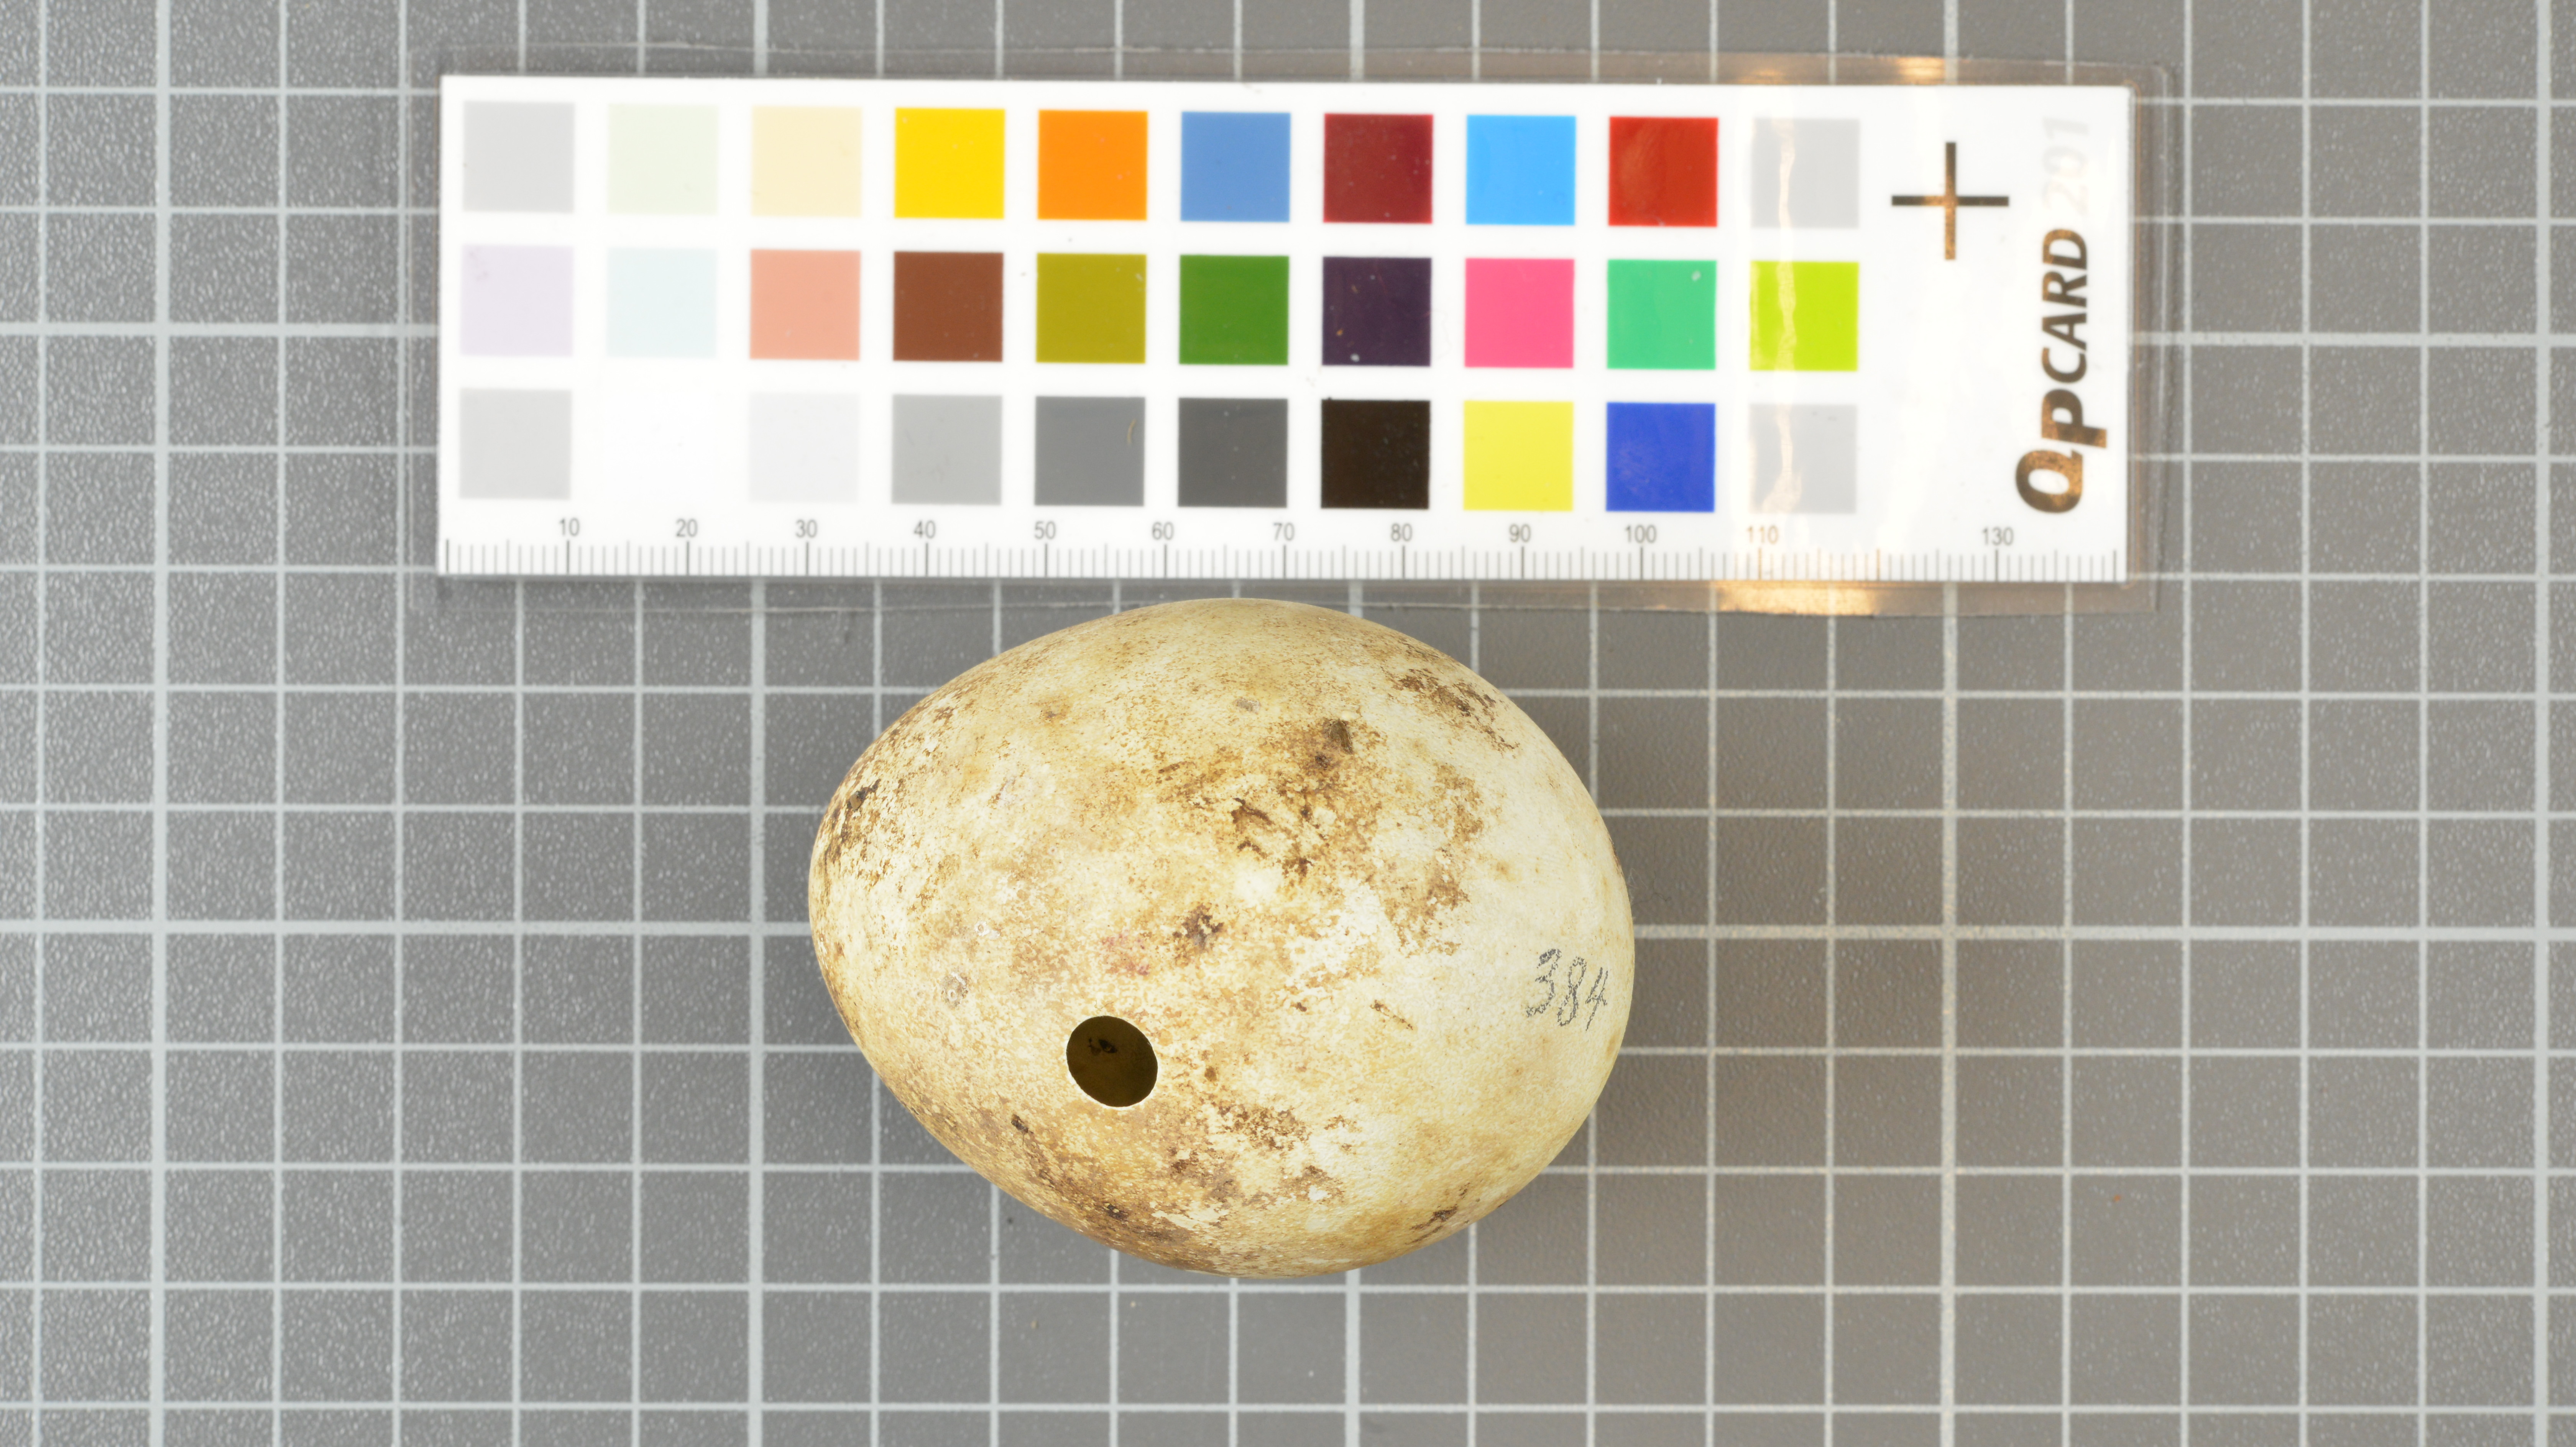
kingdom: Animalia
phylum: Chordata
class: Aves
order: Sphenisciformes
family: Spheniscidae
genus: Eudyptes
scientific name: Eudyptes moseleyi
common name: Northern rockhopper penguin
